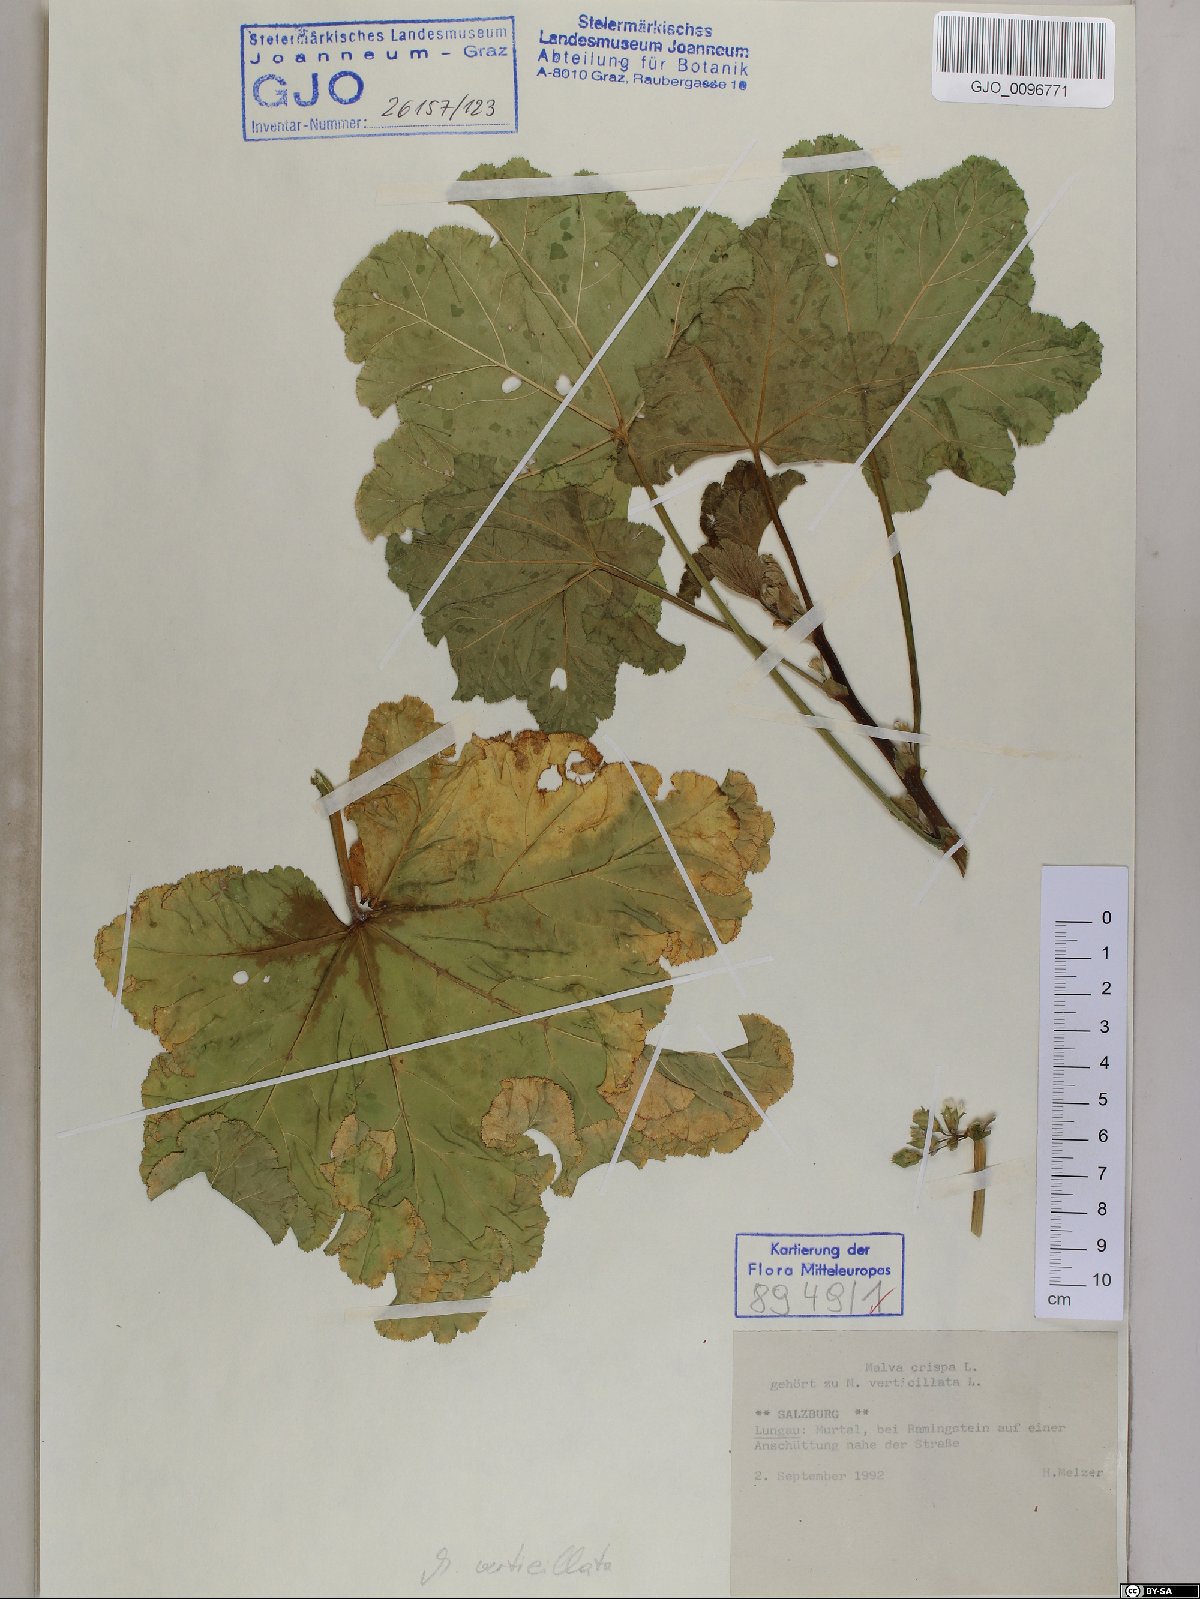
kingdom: Plantae
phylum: Tracheophyta
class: Magnoliopsida
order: Malvales
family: Malvaceae
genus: Malva
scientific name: Malva verticillata
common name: Chinese mallow
